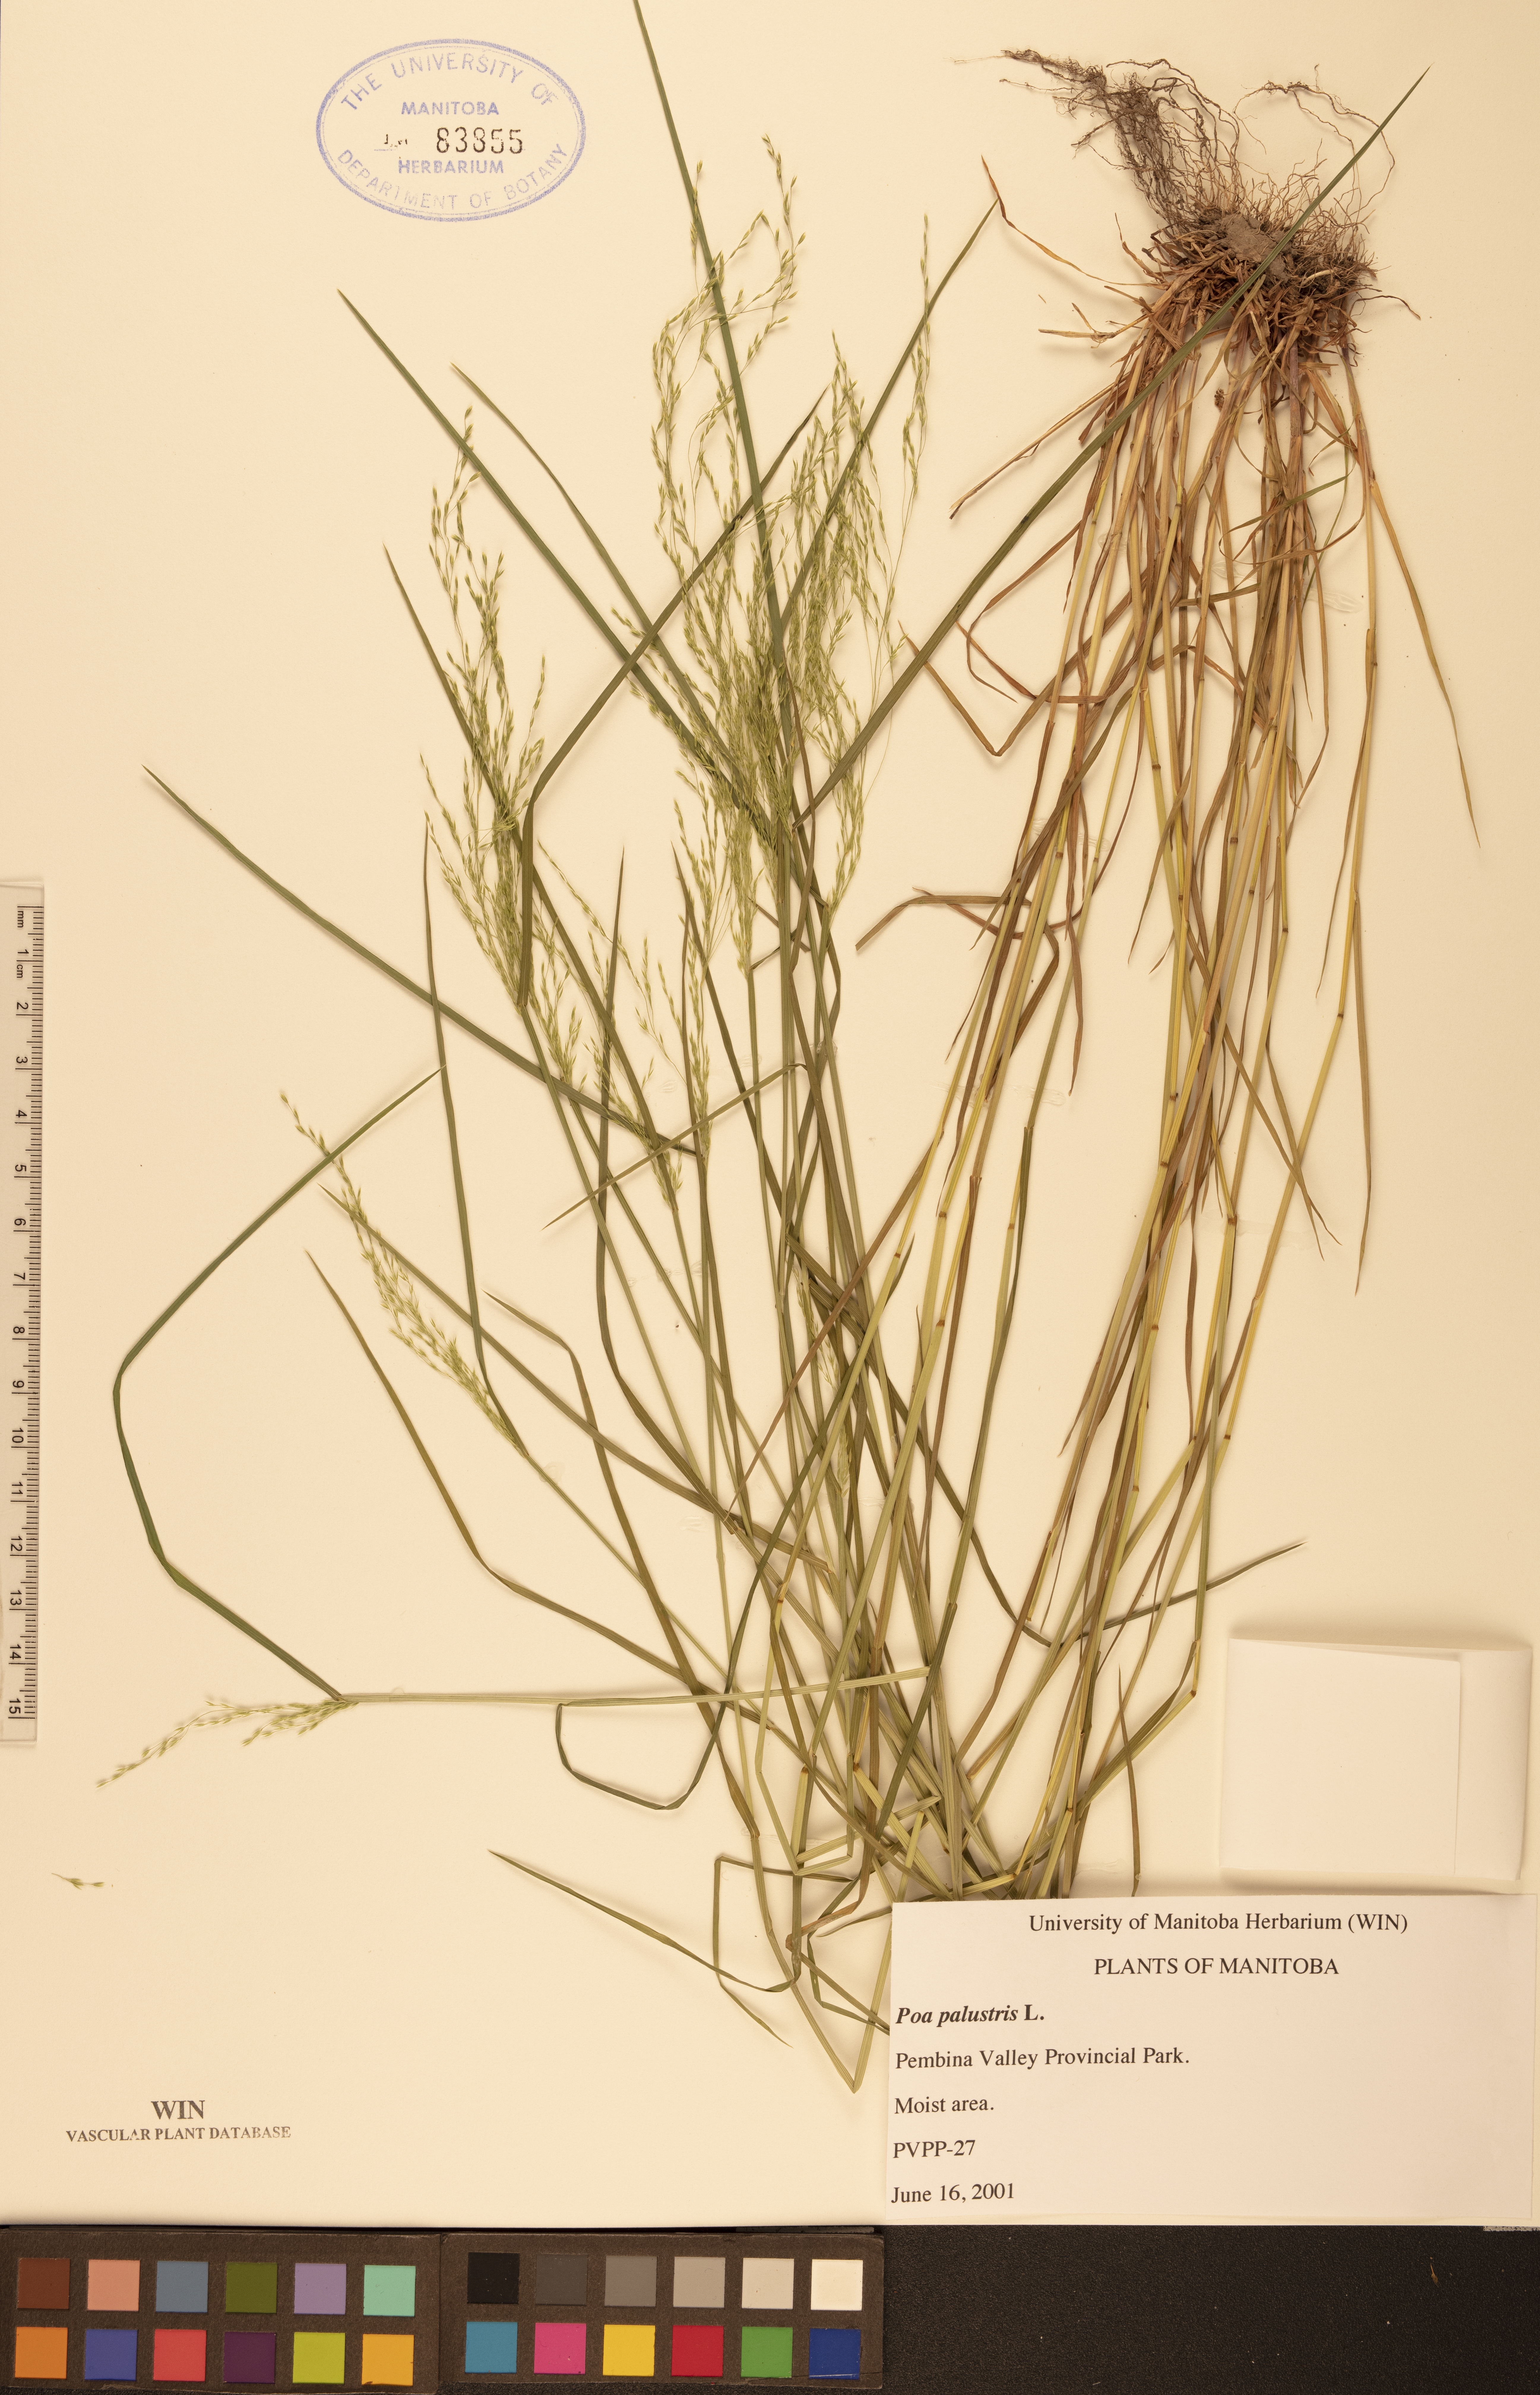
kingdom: Plantae
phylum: Tracheophyta
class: Liliopsida
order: Poales
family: Poaceae
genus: Poa
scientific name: Poa palustris
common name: Swamp meadow-grass
